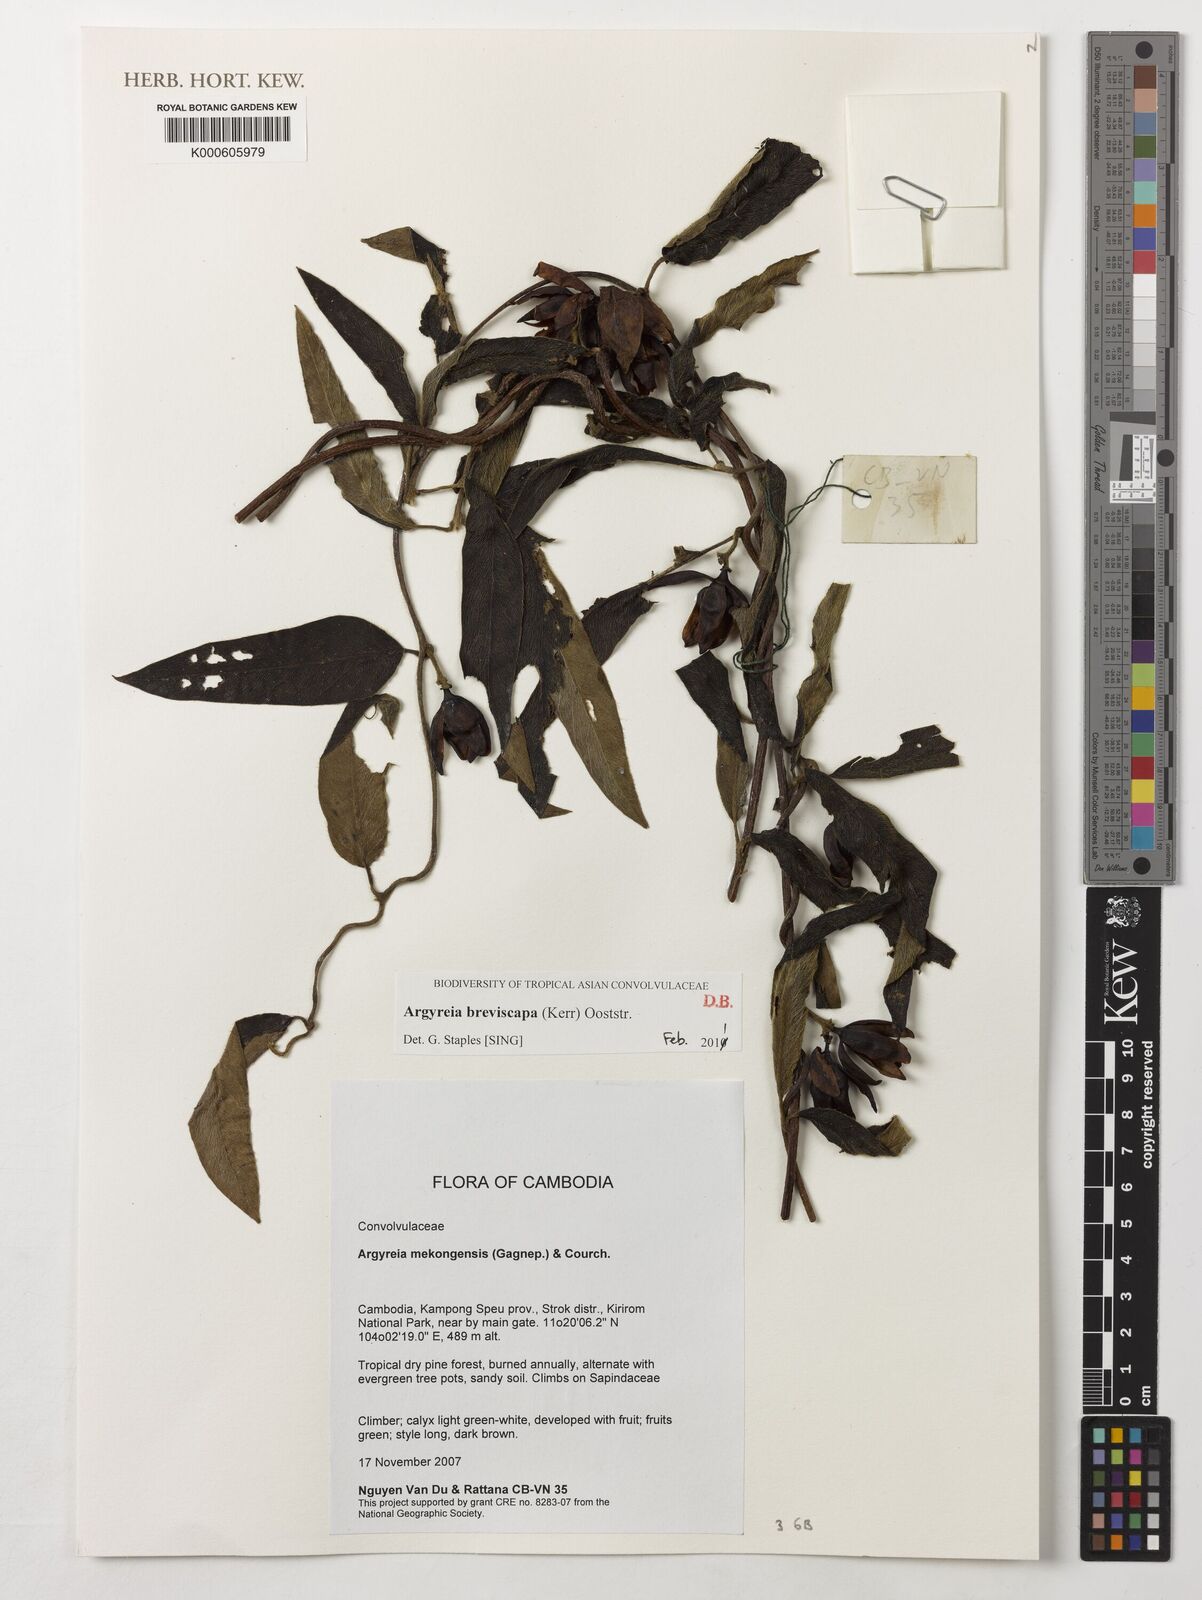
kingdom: Plantae
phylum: Tracheophyta
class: Magnoliopsida
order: Solanales
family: Convolvulaceae
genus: Argyreia
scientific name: Argyreia breviscapa
